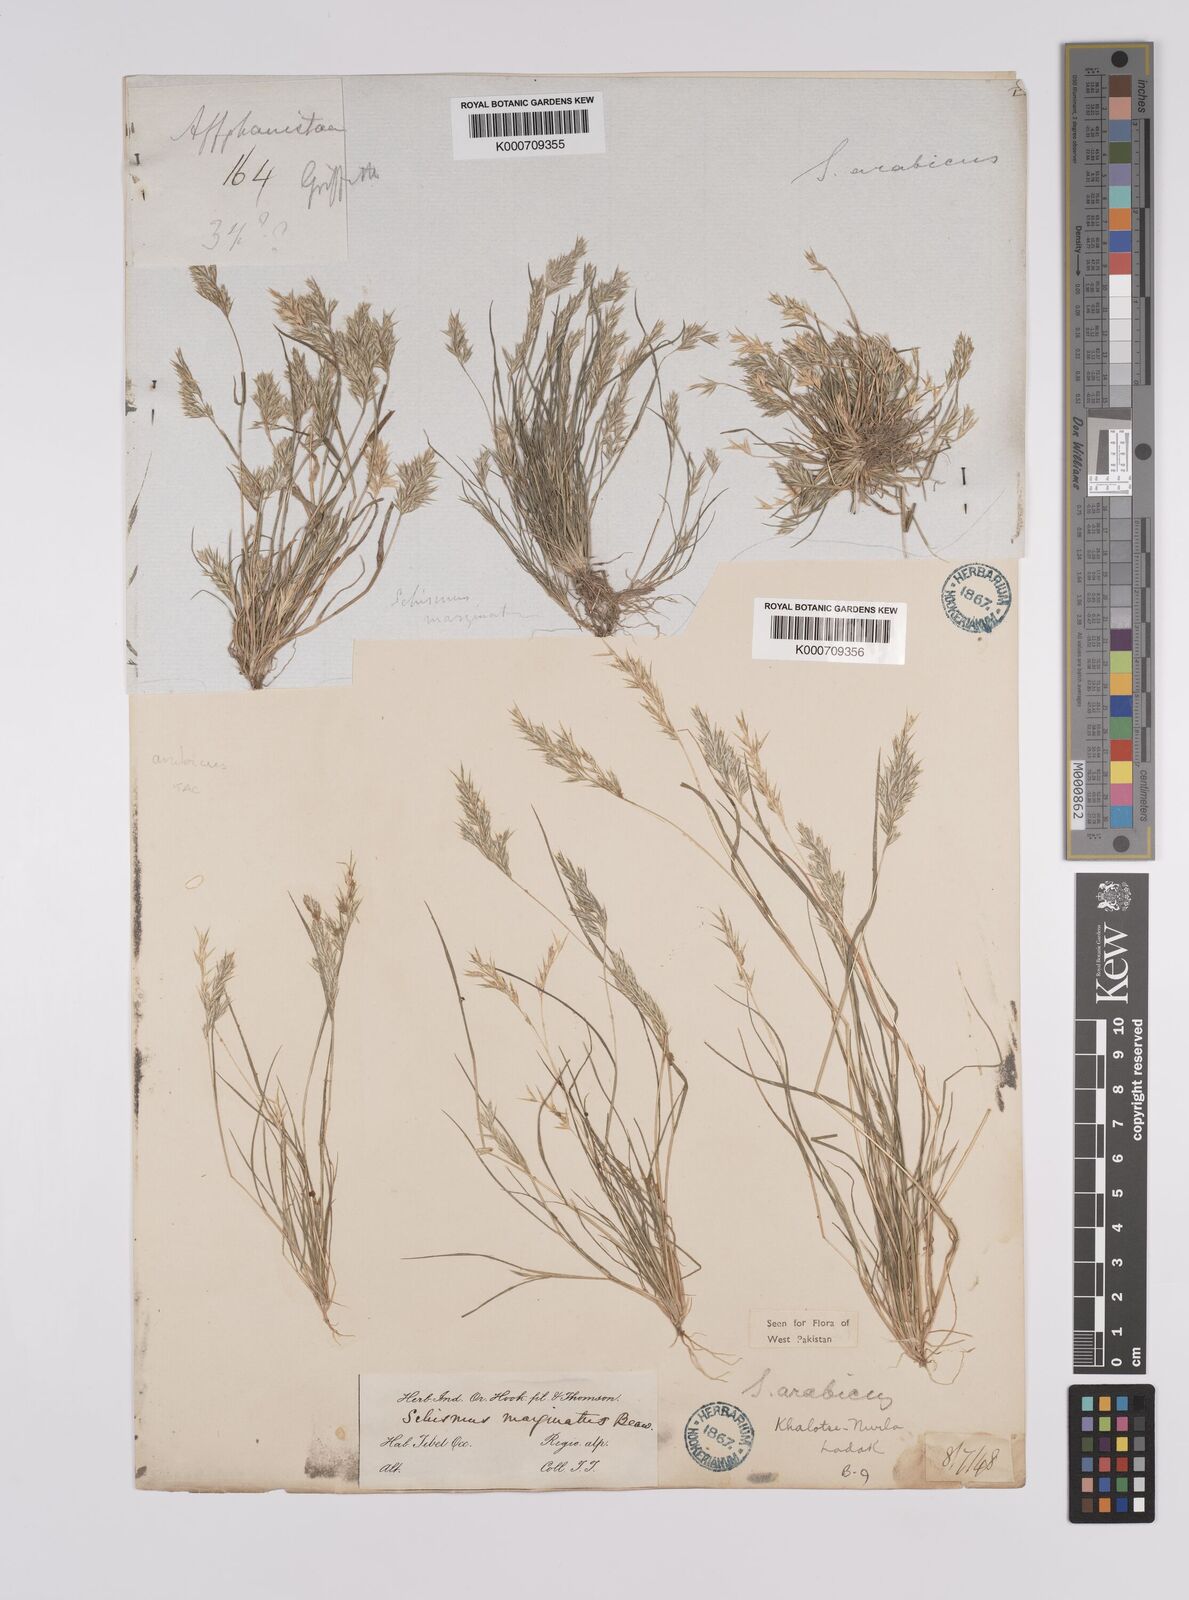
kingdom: Plantae
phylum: Tracheophyta
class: Liliopsida
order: Poales
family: Poaceae
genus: Schismus
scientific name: Schismus arabicus
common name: Arabian schismus
